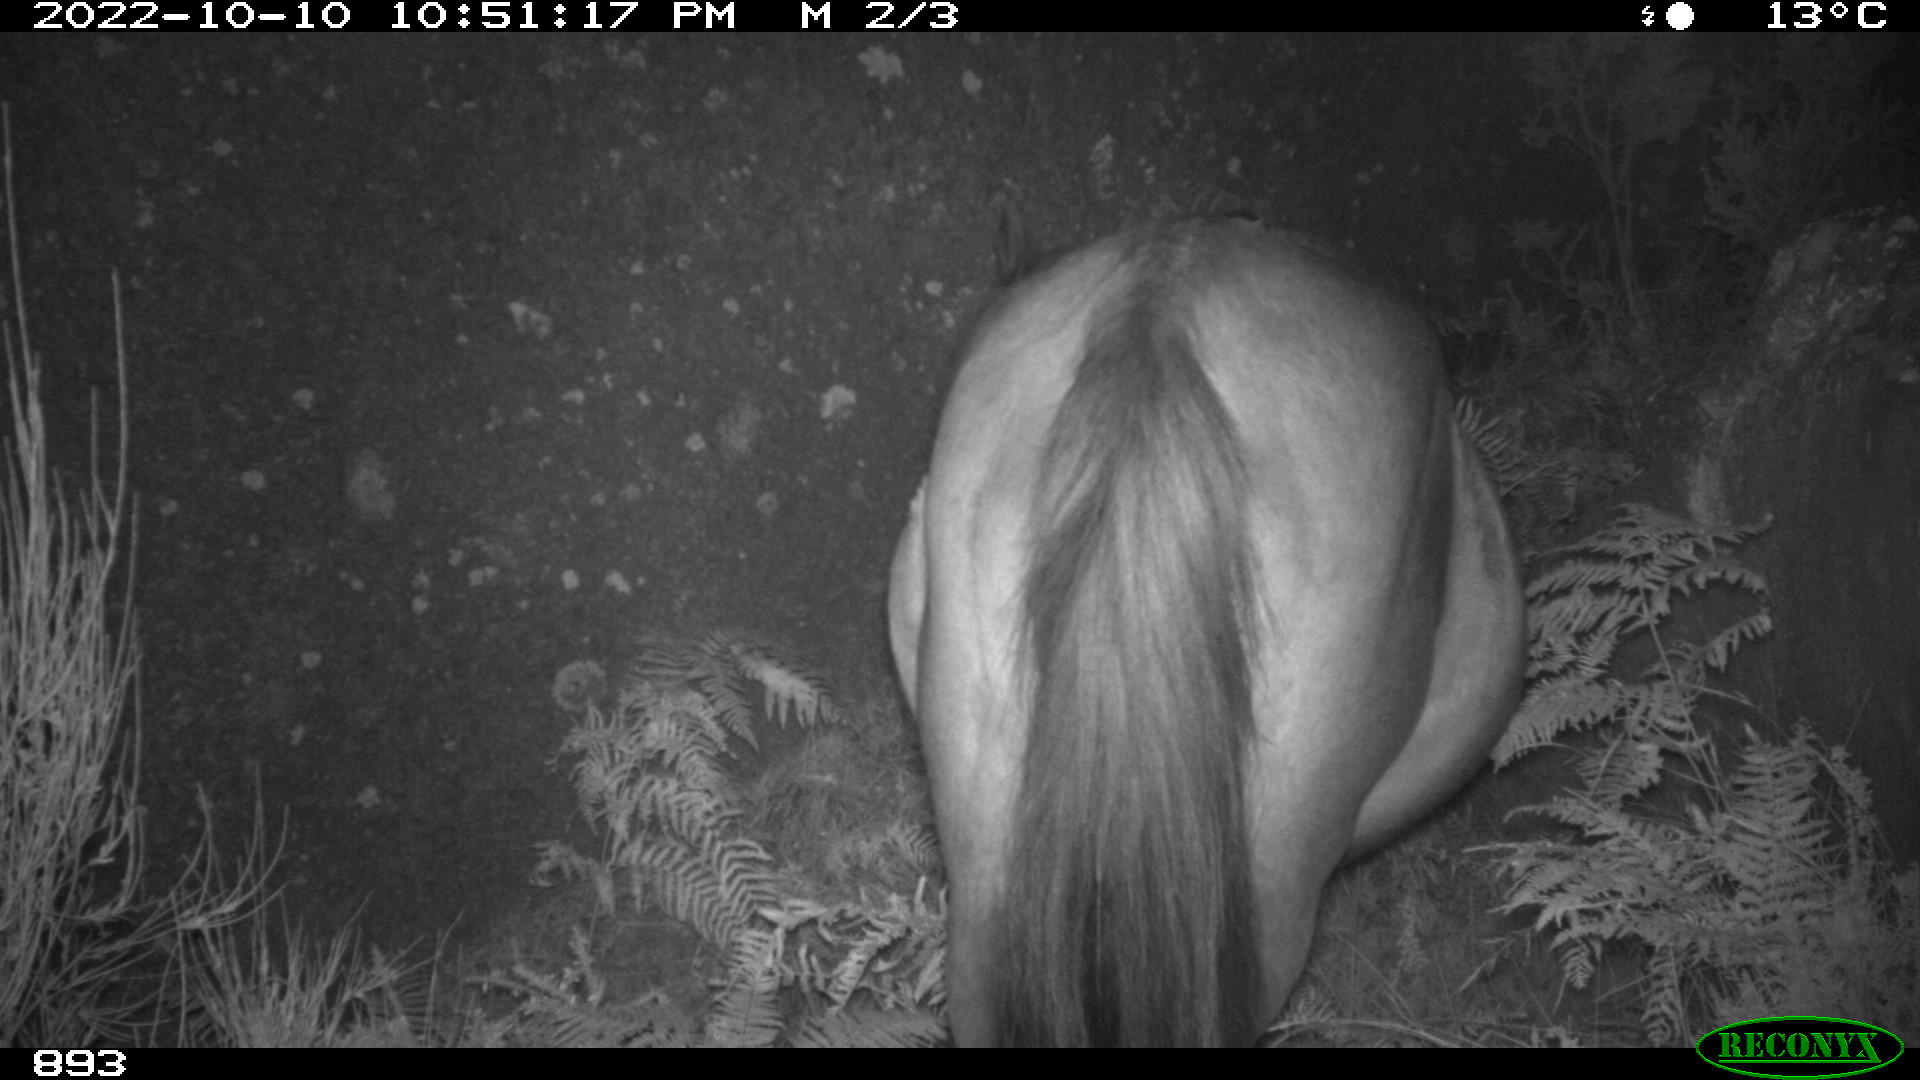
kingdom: Animalia
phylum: Chordata
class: Mammalia
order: Perissodactyla
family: Equidae
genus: Equus
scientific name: Equus caballus
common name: Horse
